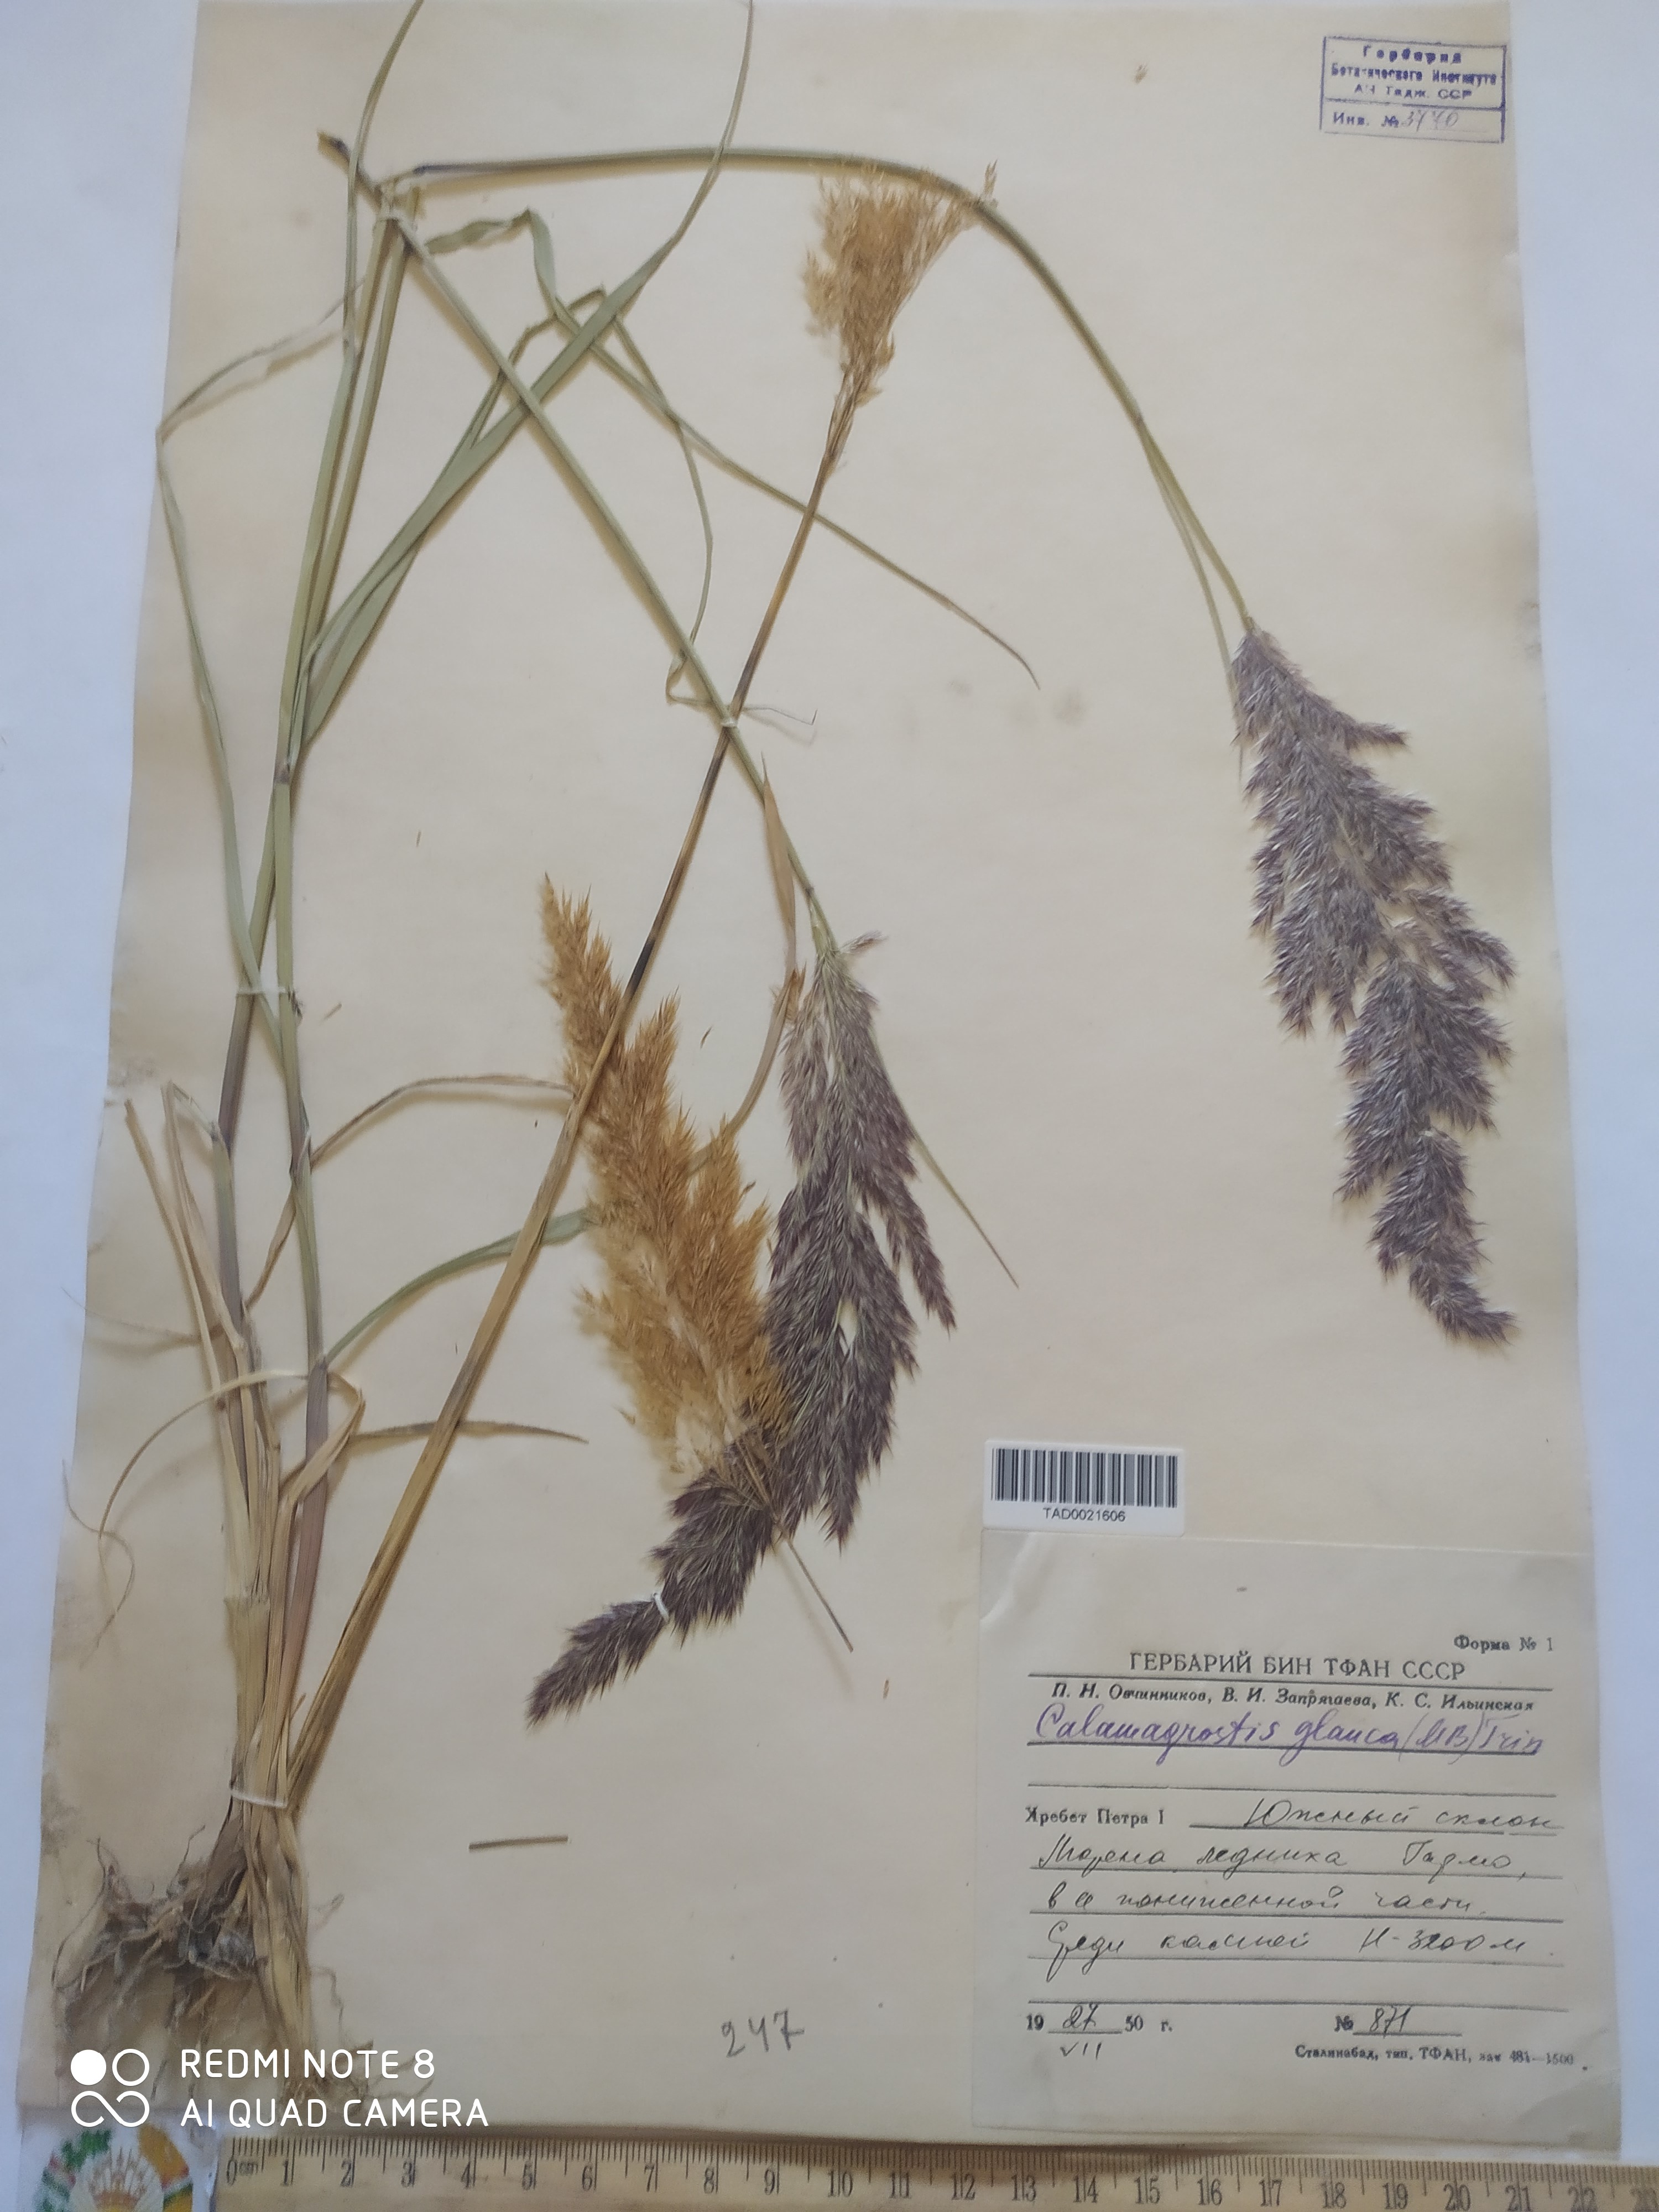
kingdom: Plantae
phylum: Tracheophyta
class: Liliopsida
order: Poales
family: Poaceae
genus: Calamagrostis
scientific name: Calamagrostis pseudophragmites
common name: Coastal small-reed
